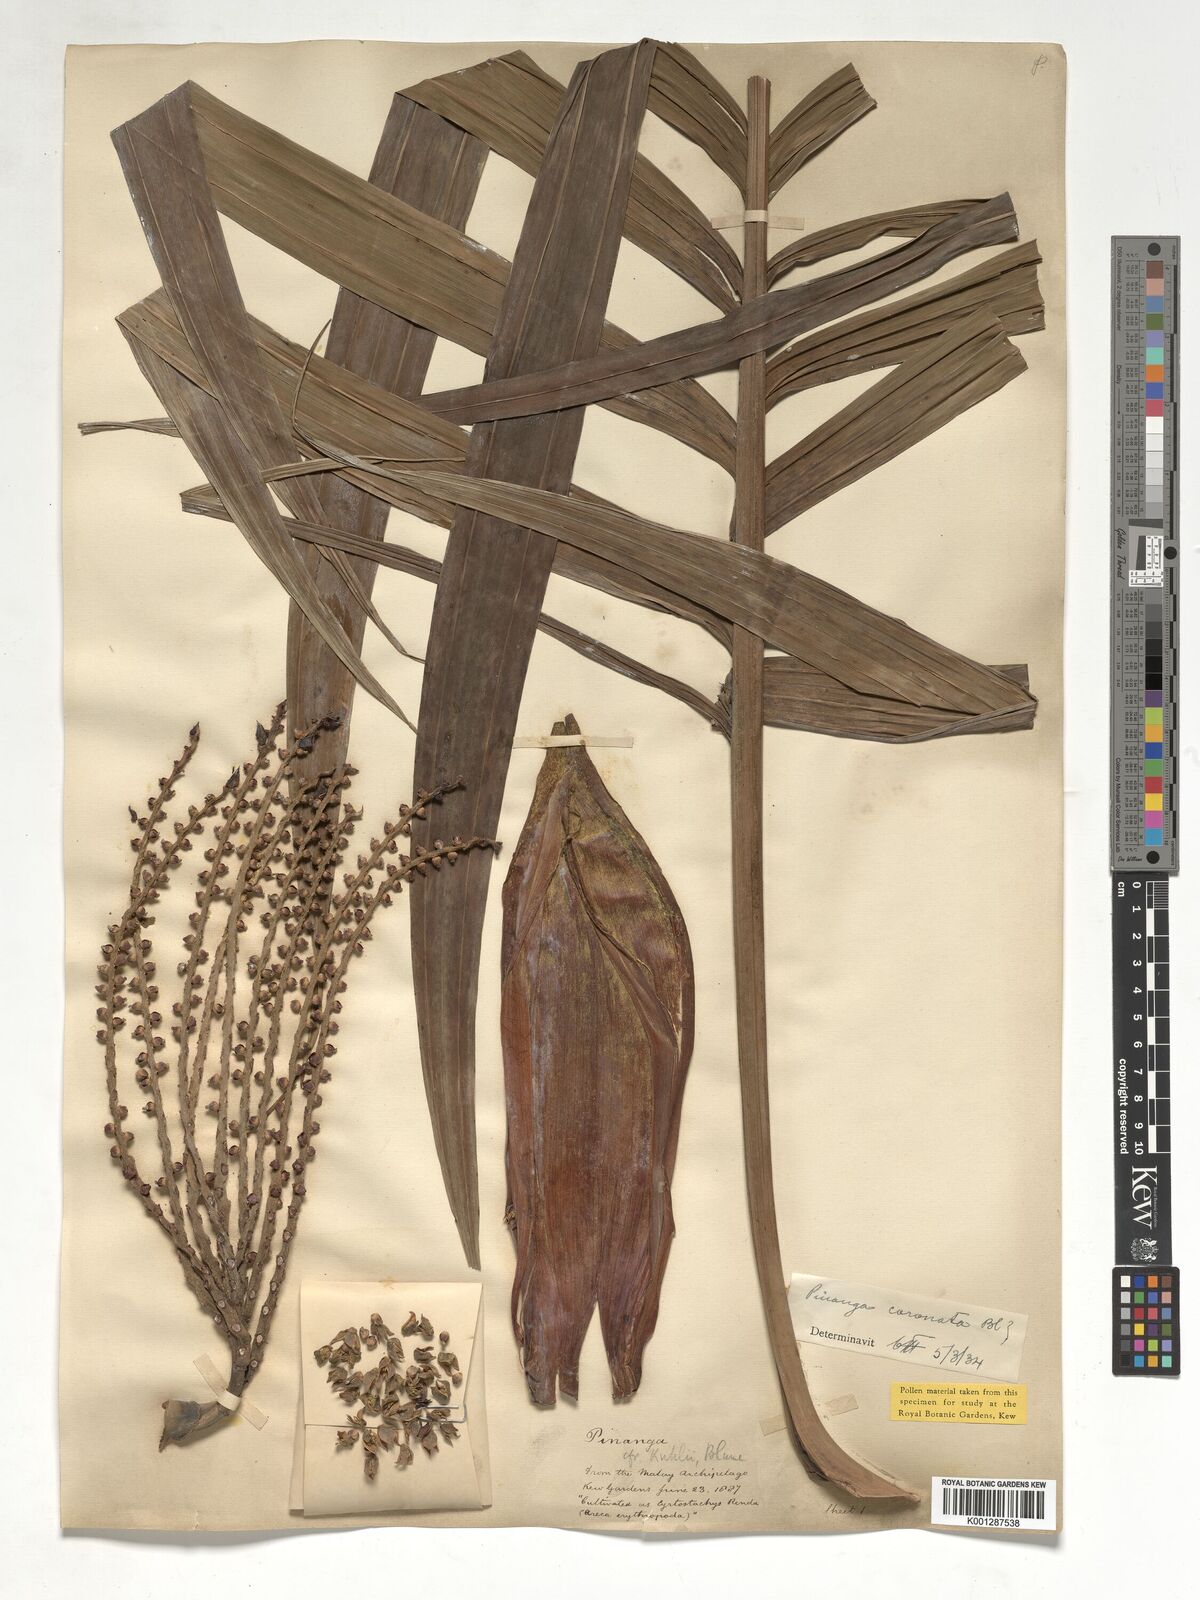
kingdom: Plantae
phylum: Tracheophyta
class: Liliopsida
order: Arecales
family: Arecaceae
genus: Pinanga
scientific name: Pinanga coronata
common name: Ivory cane palm
